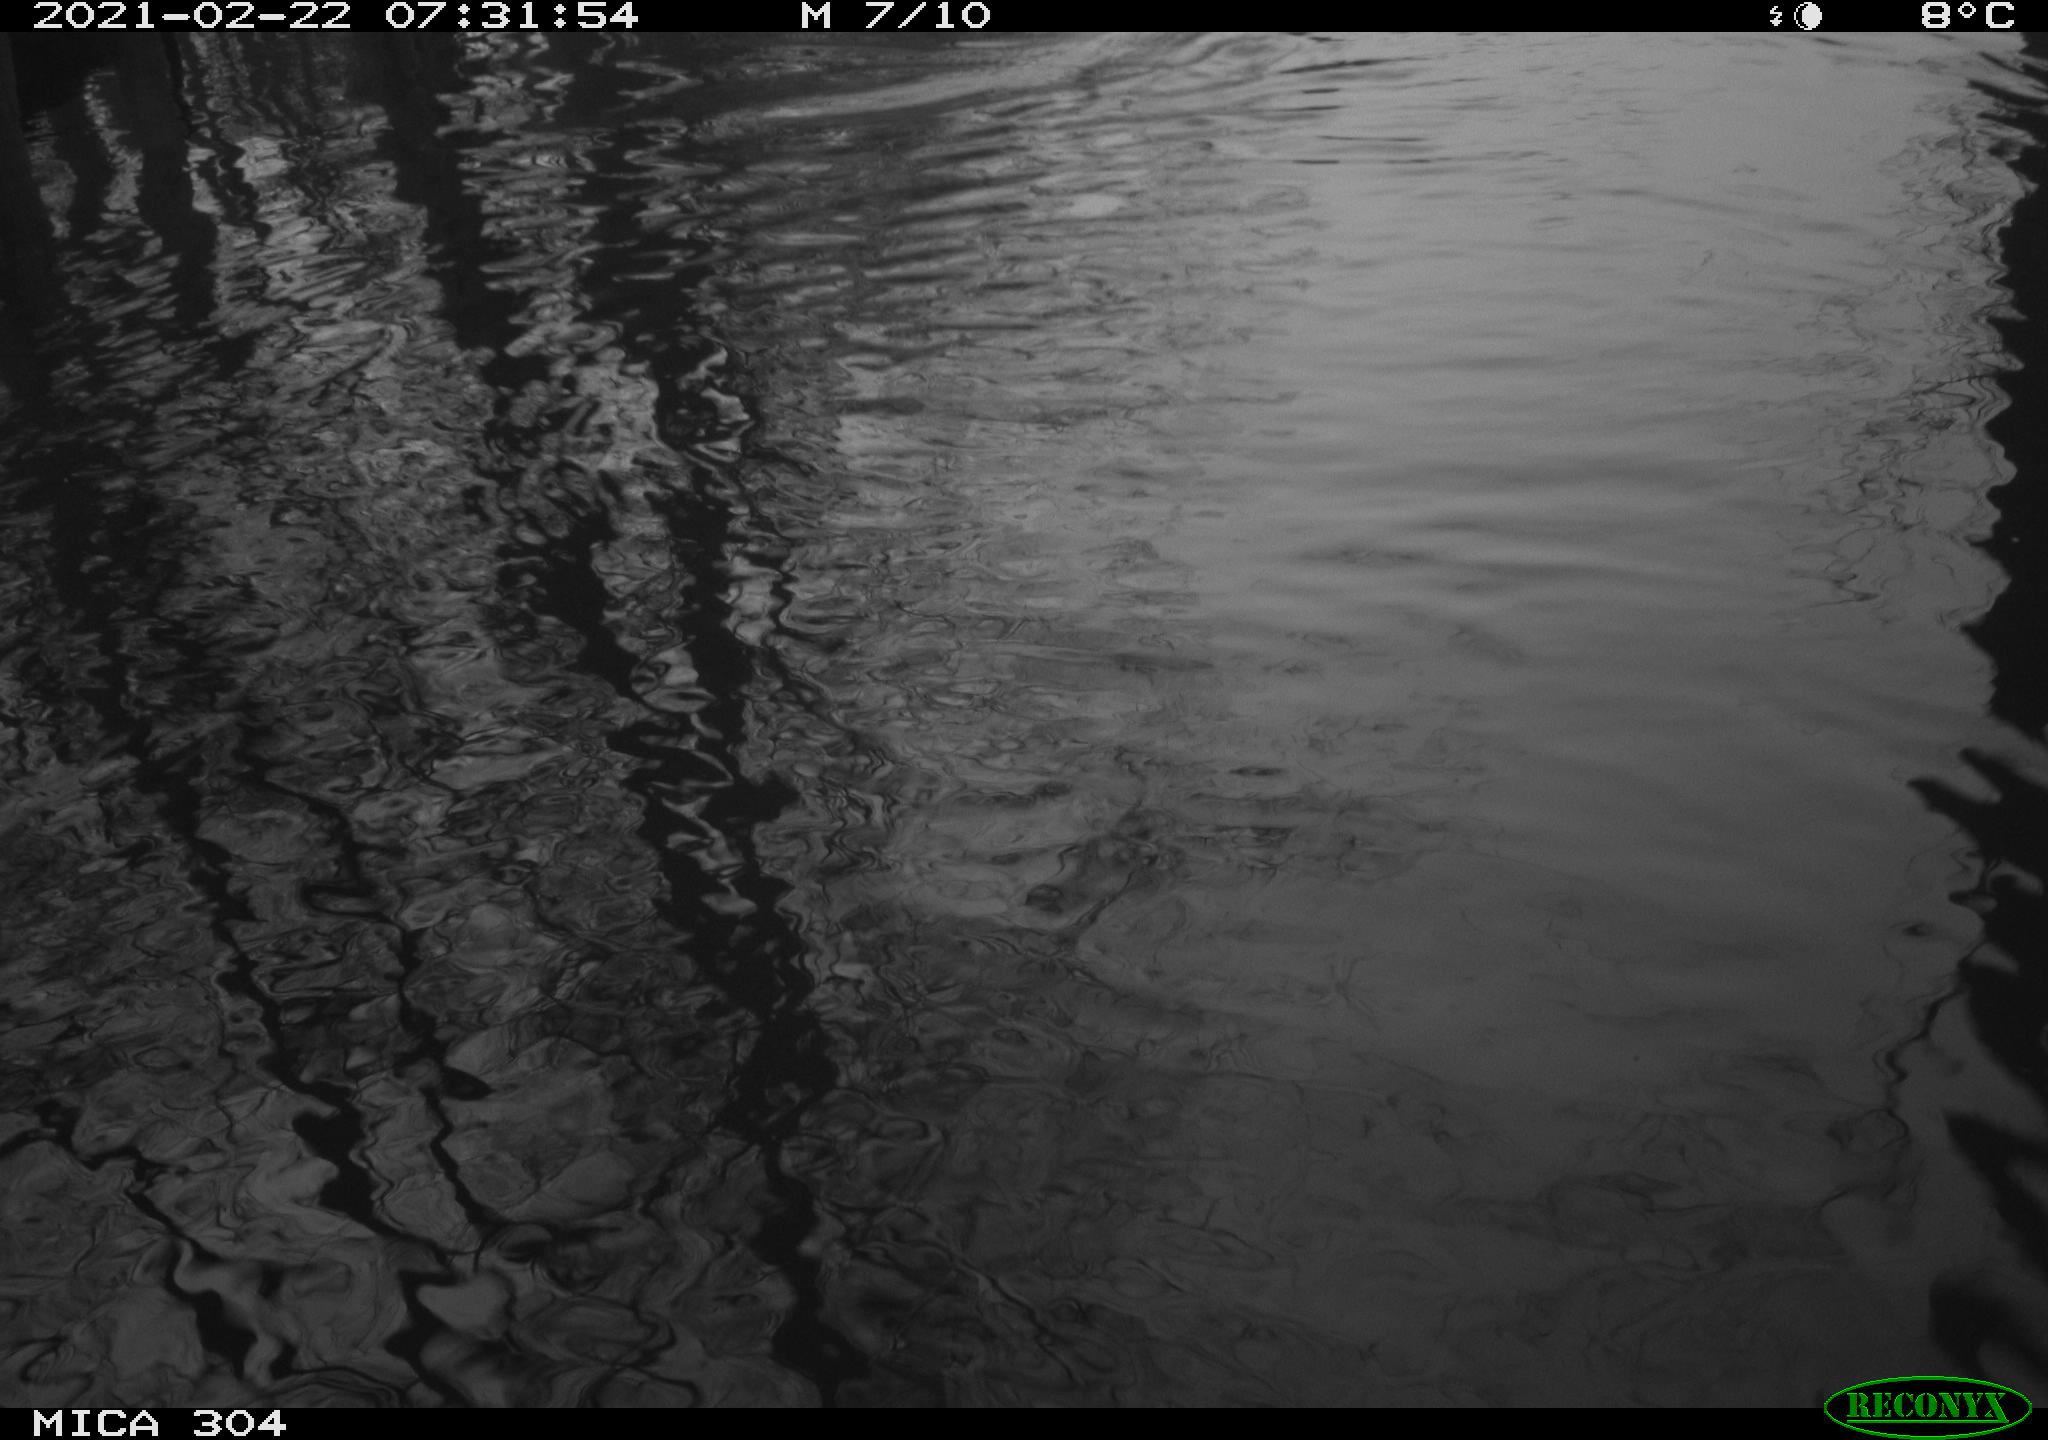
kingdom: Animalia
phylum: Chordata
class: Aves
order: Gruiformes
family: Rallidae
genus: Fulica
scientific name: Fulica atra
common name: Eurasian coot
